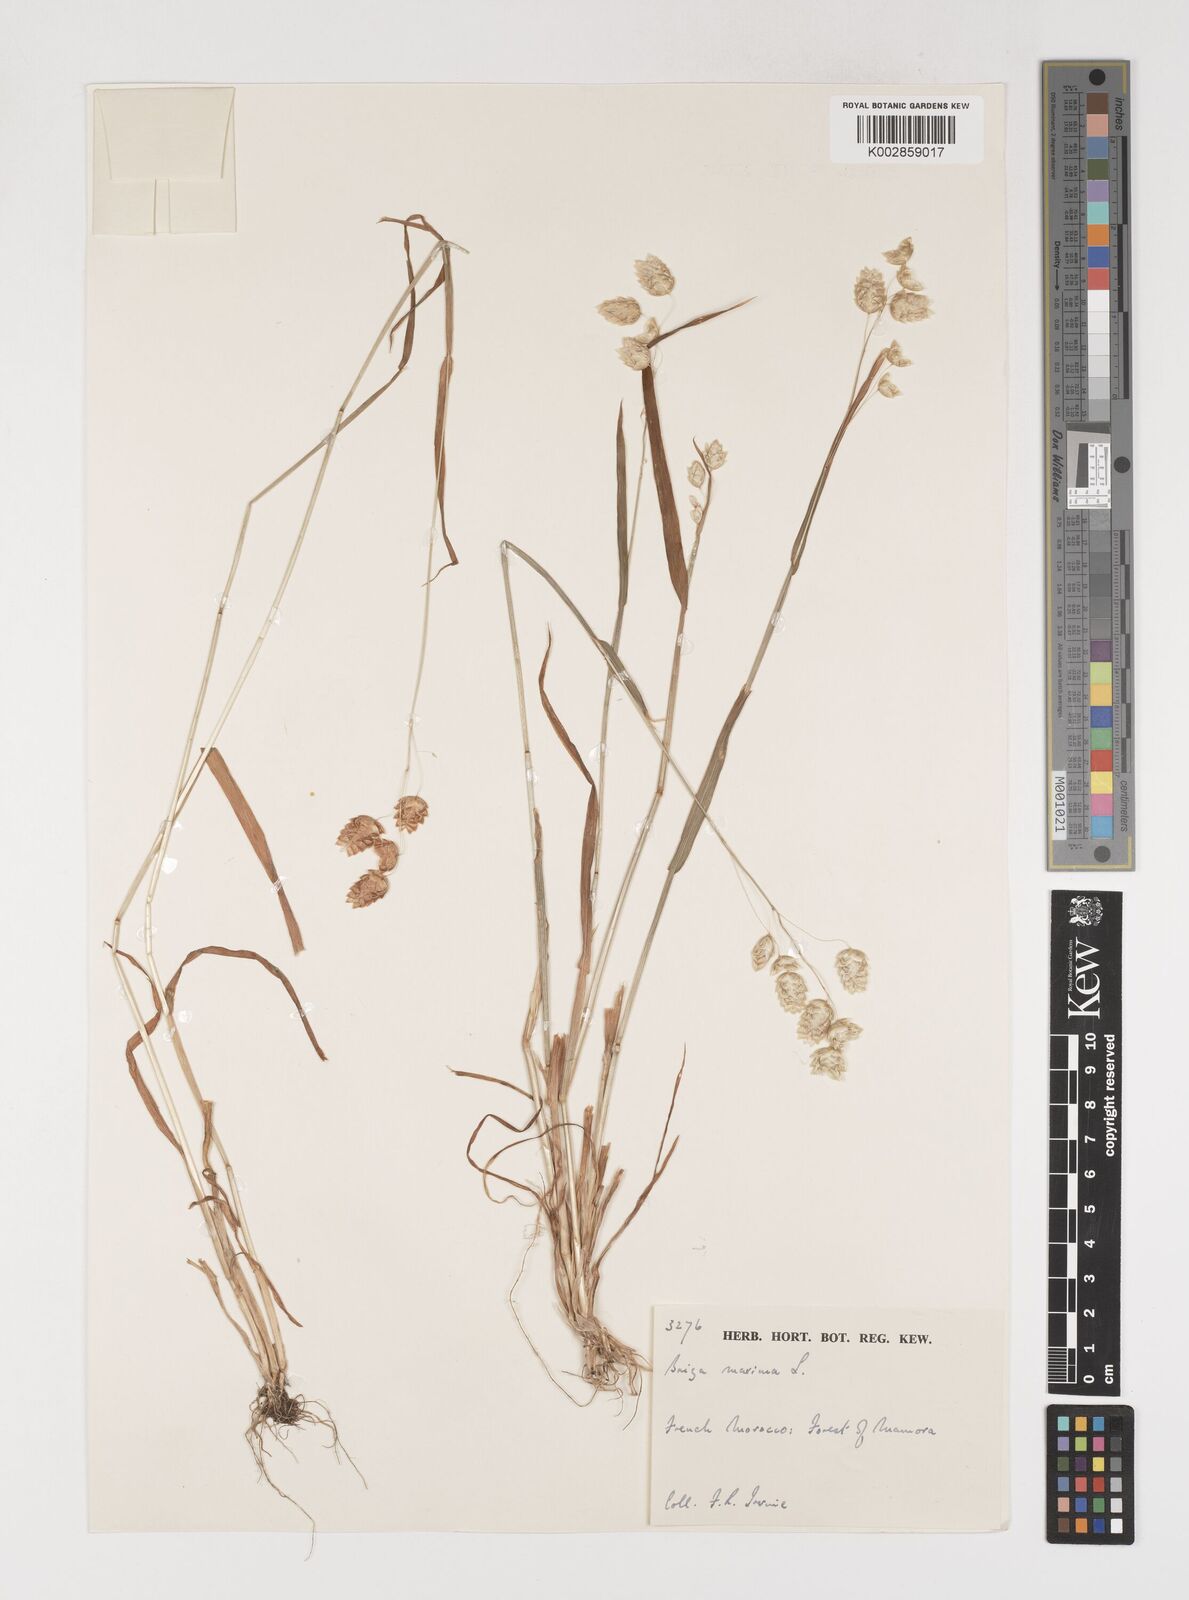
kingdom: Plantae
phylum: Tracheophyta
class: Liliopsida
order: Poales
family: Poaceae
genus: Briza
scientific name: Briza maxima
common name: Big quakinggrass
